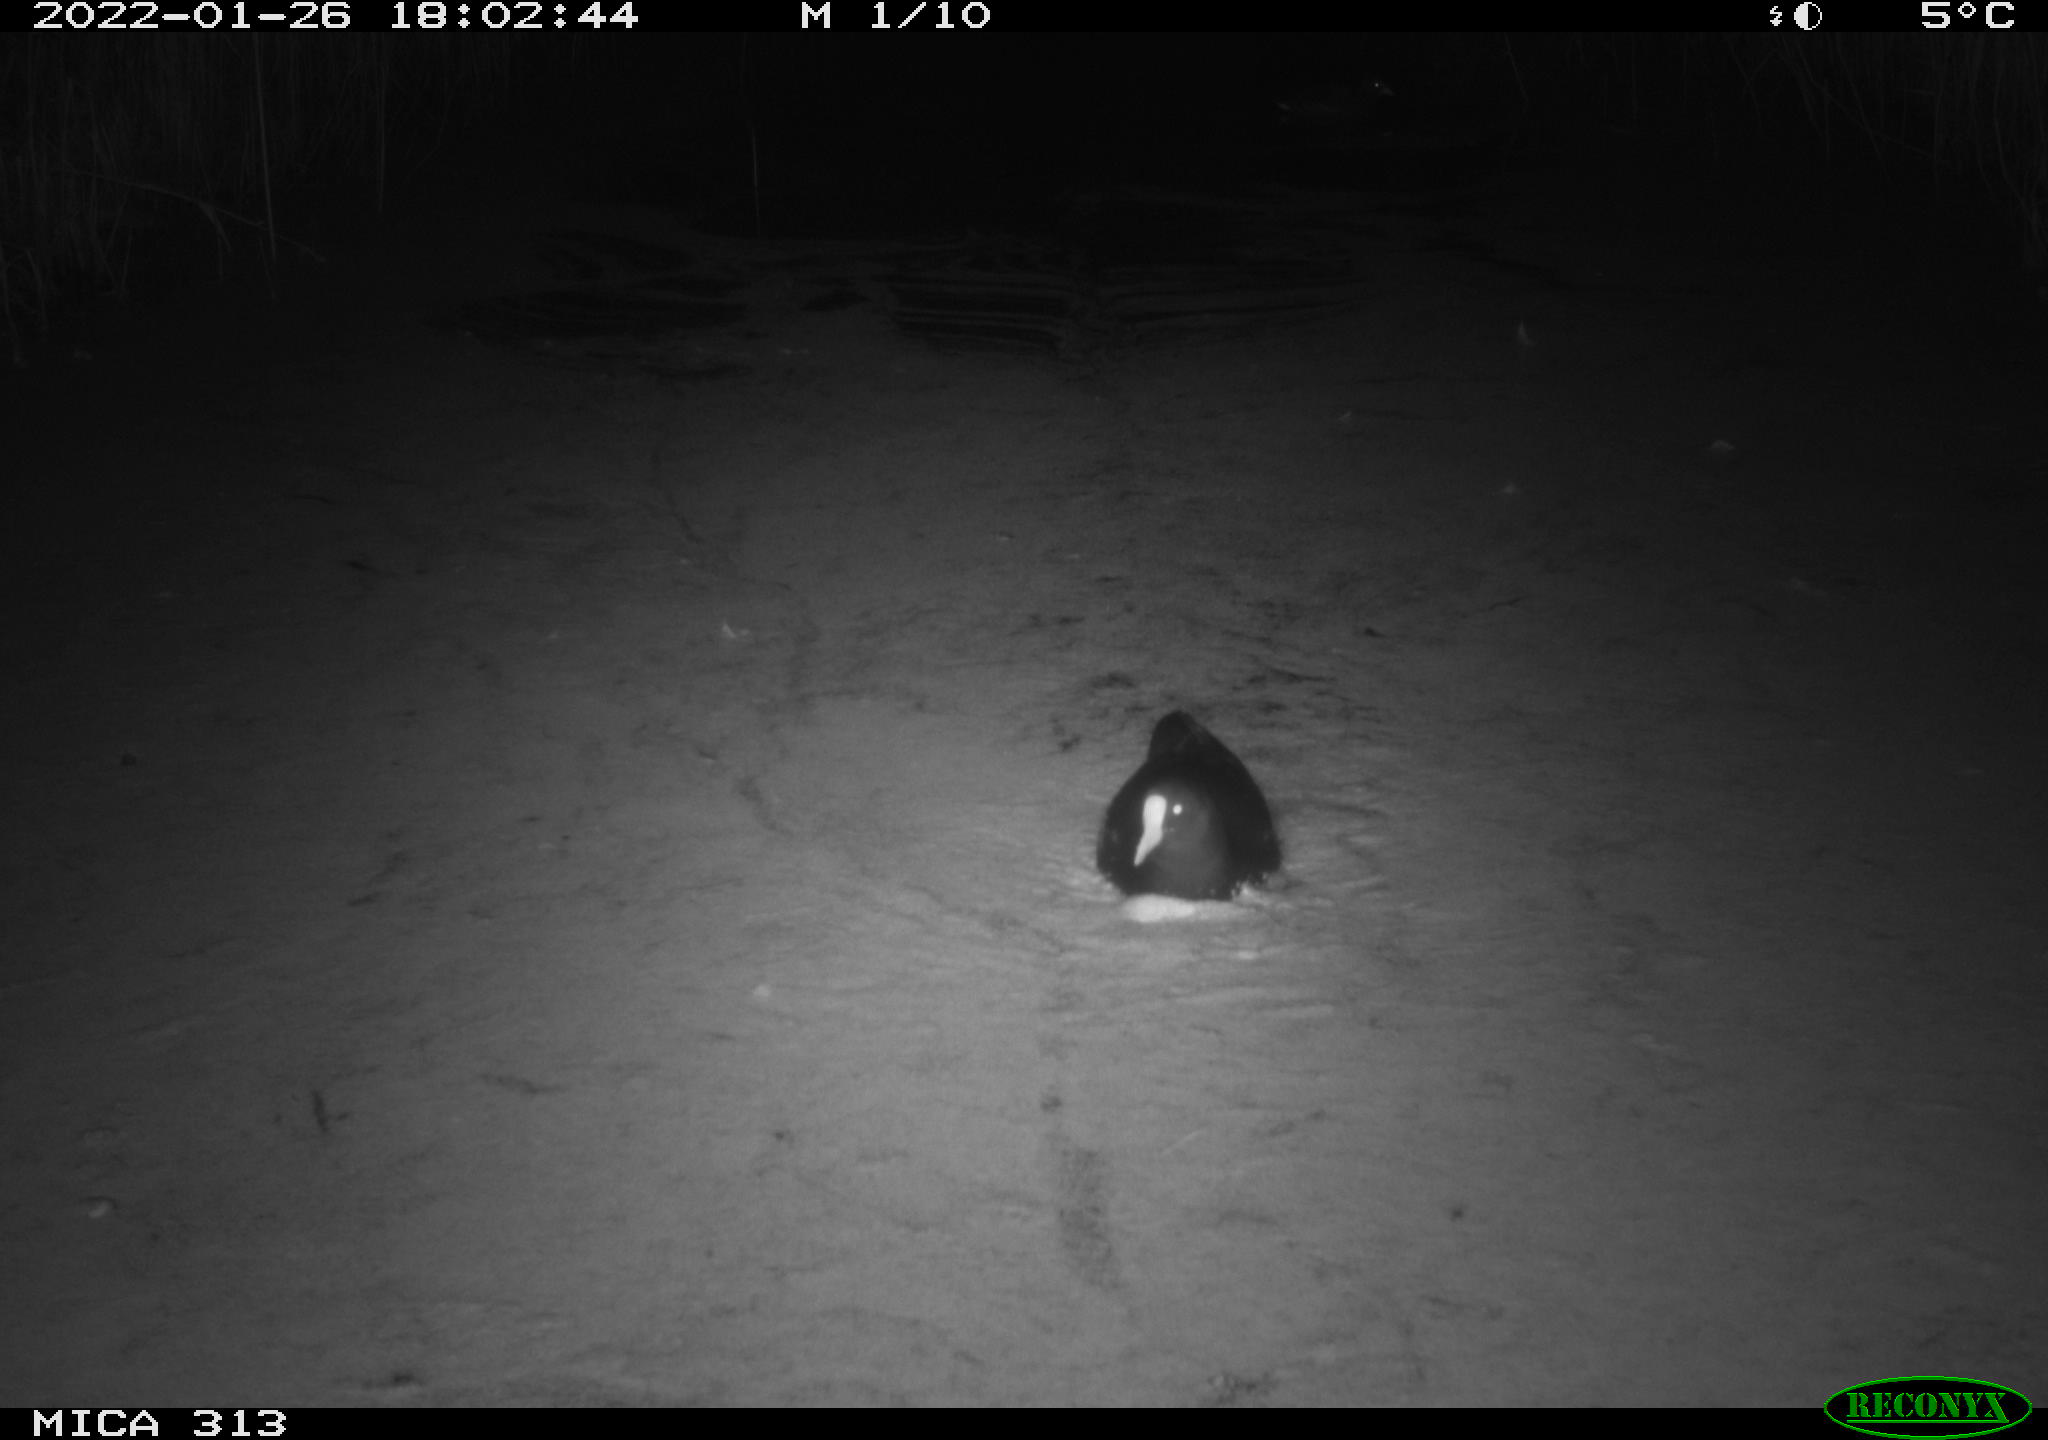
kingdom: Animalia
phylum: Chordata
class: Aves
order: Gruiformes
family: Rallidae
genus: Gallinula
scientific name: Gallinula chloropus
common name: Common moorhen
